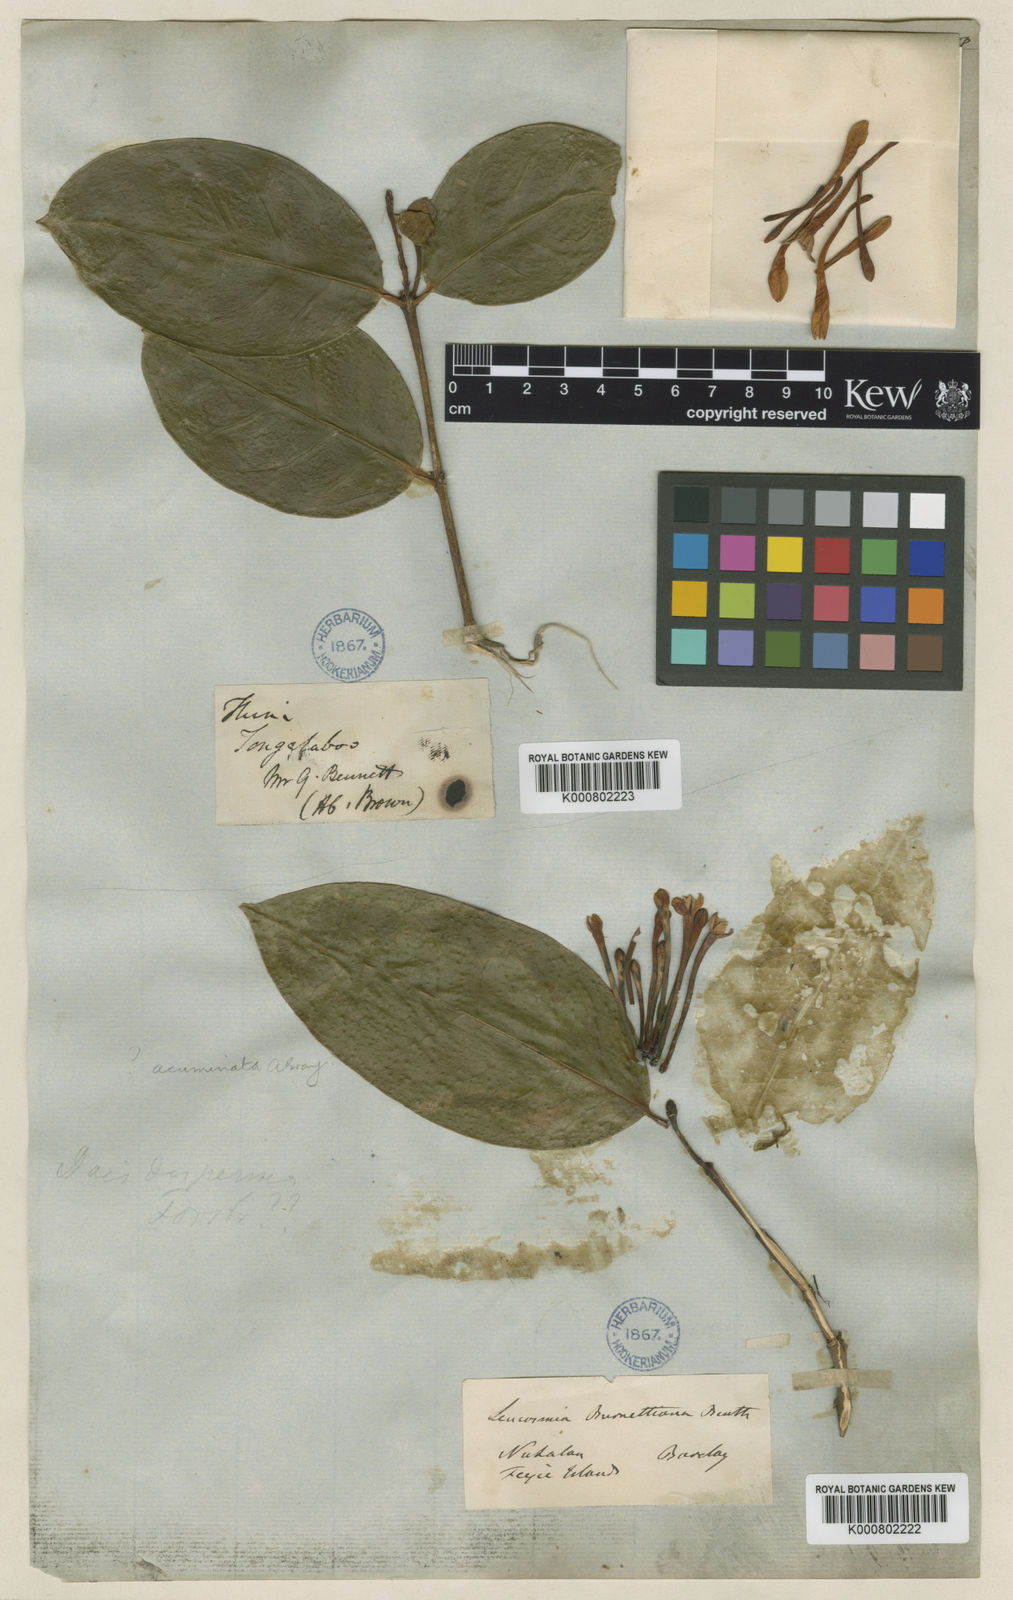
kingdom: Plantae
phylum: Tracheophyta
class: Magnoliopsida
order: Malvales
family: Thymelaeaceae
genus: Phaleria
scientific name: Phaleria disperma
